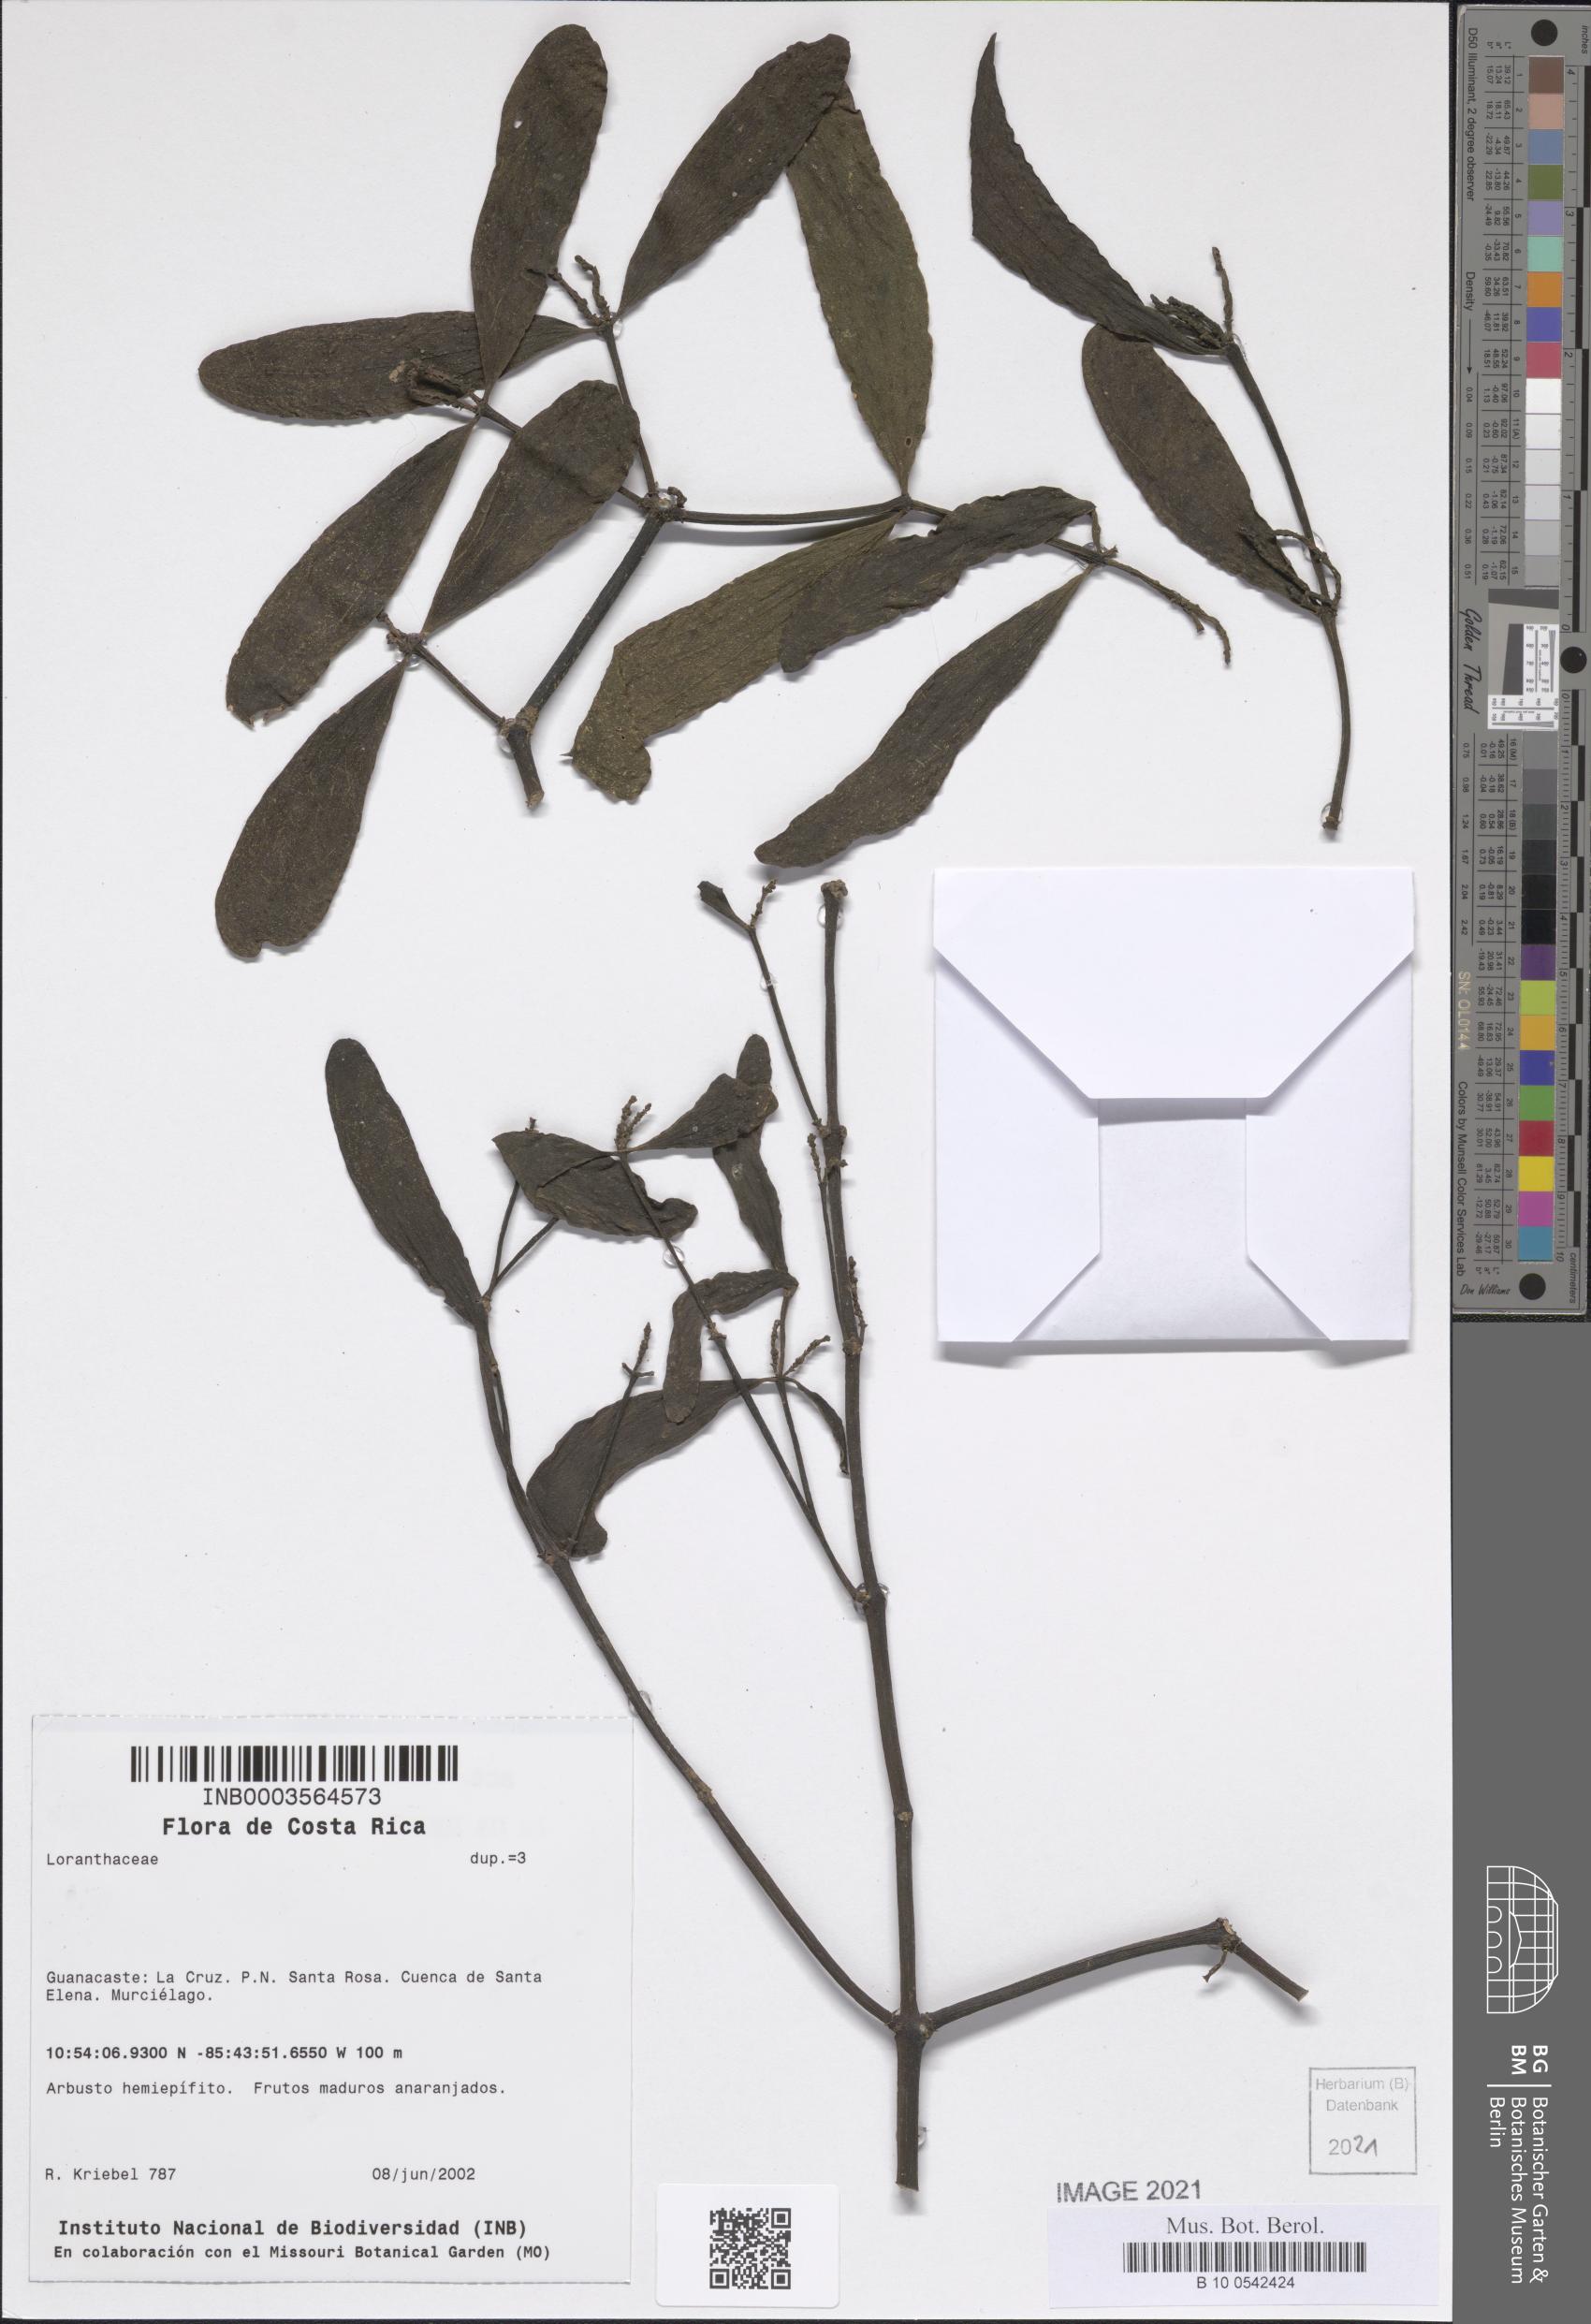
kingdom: Plantae
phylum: Tracheophyta
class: Magnoliopsida
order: Santalales
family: Loranthaceae
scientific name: Loranthaceae
